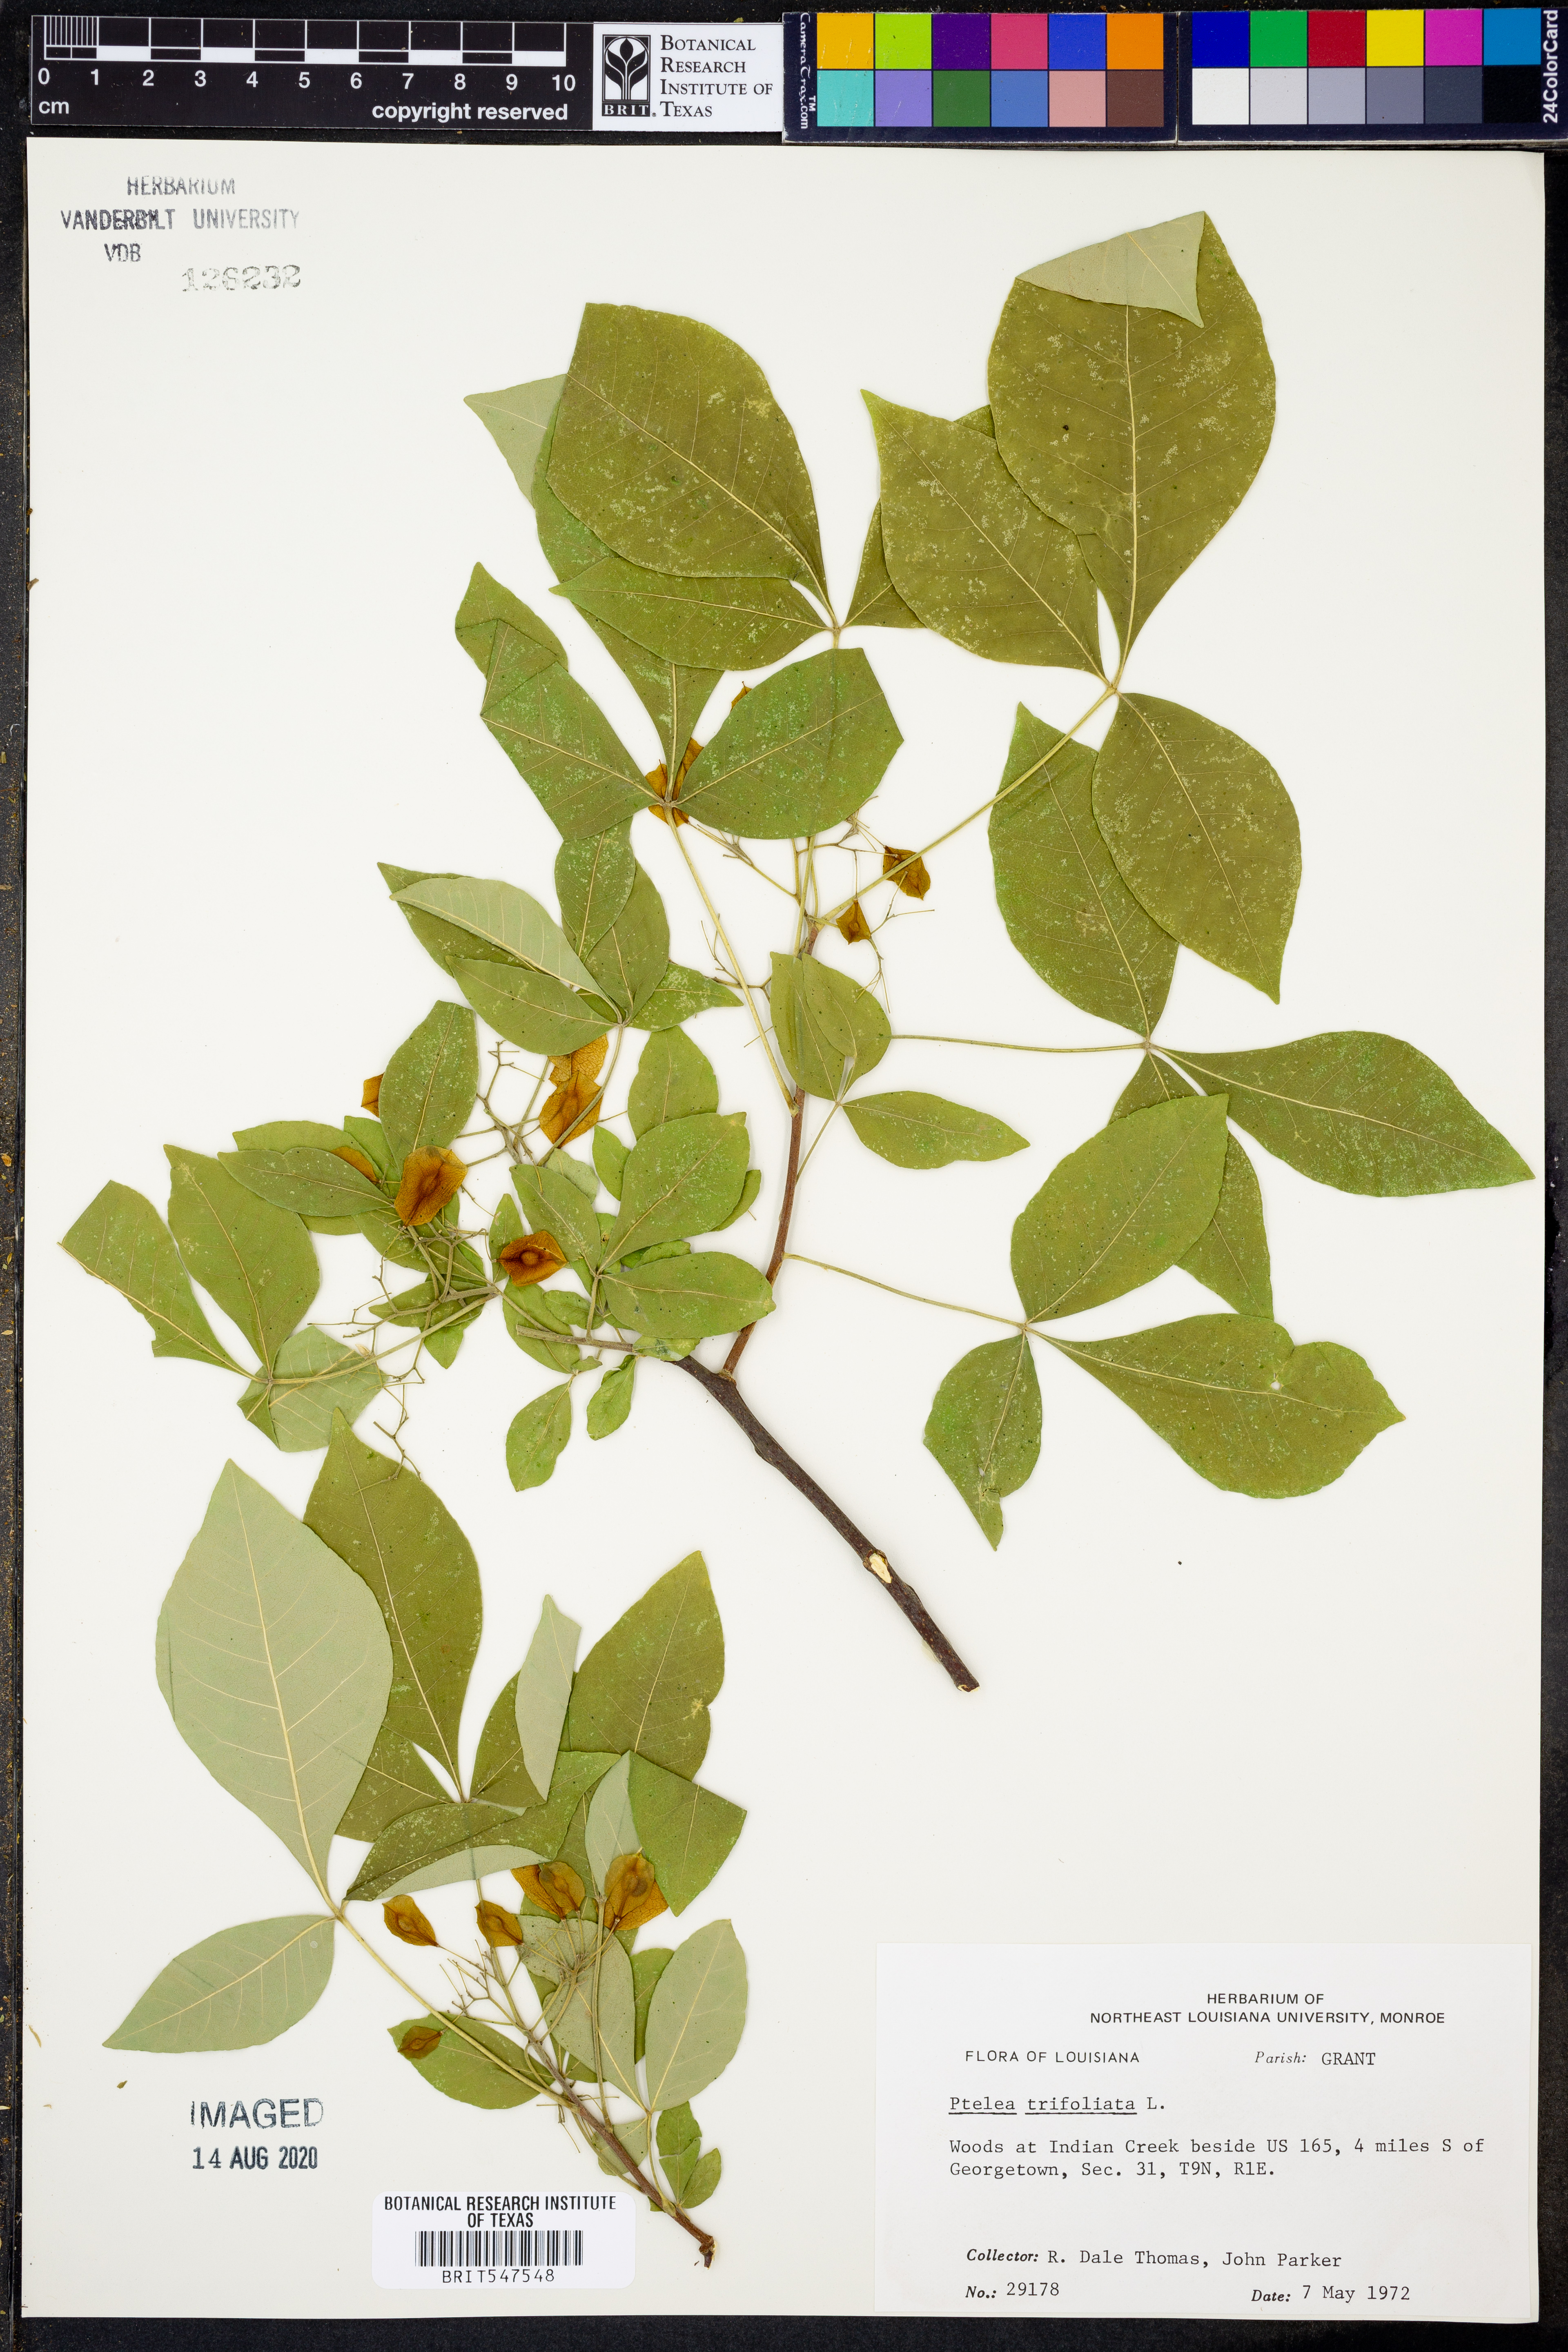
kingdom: Plantae
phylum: Tracheophyta
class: Magnoliopsida
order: Sapindales
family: Rutaceae
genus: Ptelea
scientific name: Ptelea trifoliata
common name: Common hop-tree
